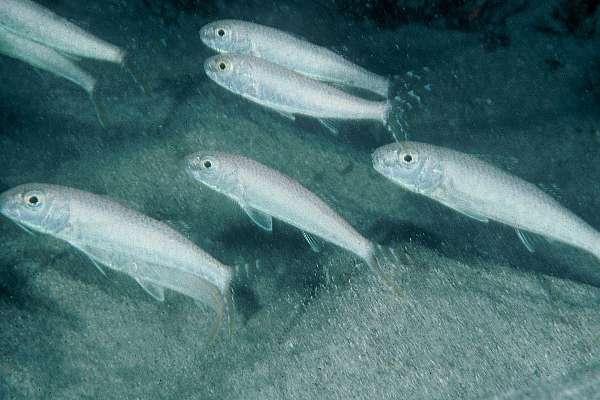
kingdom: Animalia
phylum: Chordata
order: Perciformes
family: Mullidae
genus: Upeneus
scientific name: Upeneus francisi
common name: Francis' goatfish
